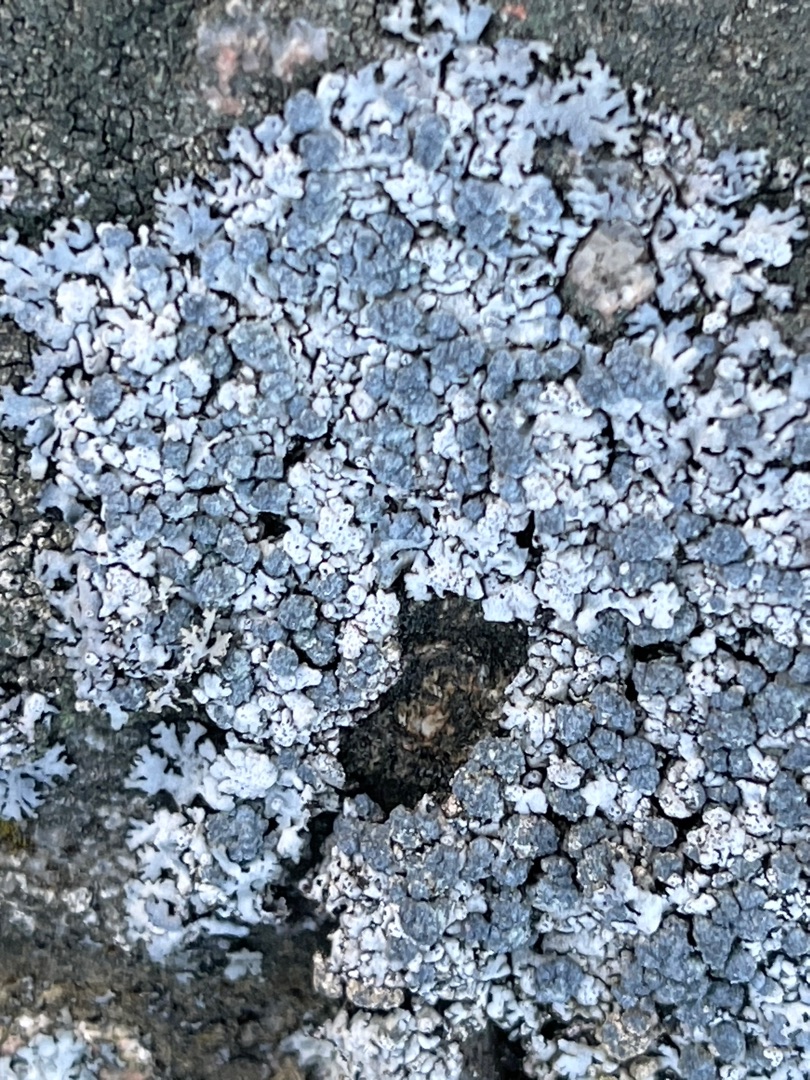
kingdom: Fungi
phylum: Ascomycota
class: Lecanoromycetes
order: Caliciales
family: Physciaceae
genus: Physcia
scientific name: Physcia caesia
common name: Blågrå rosetlav
